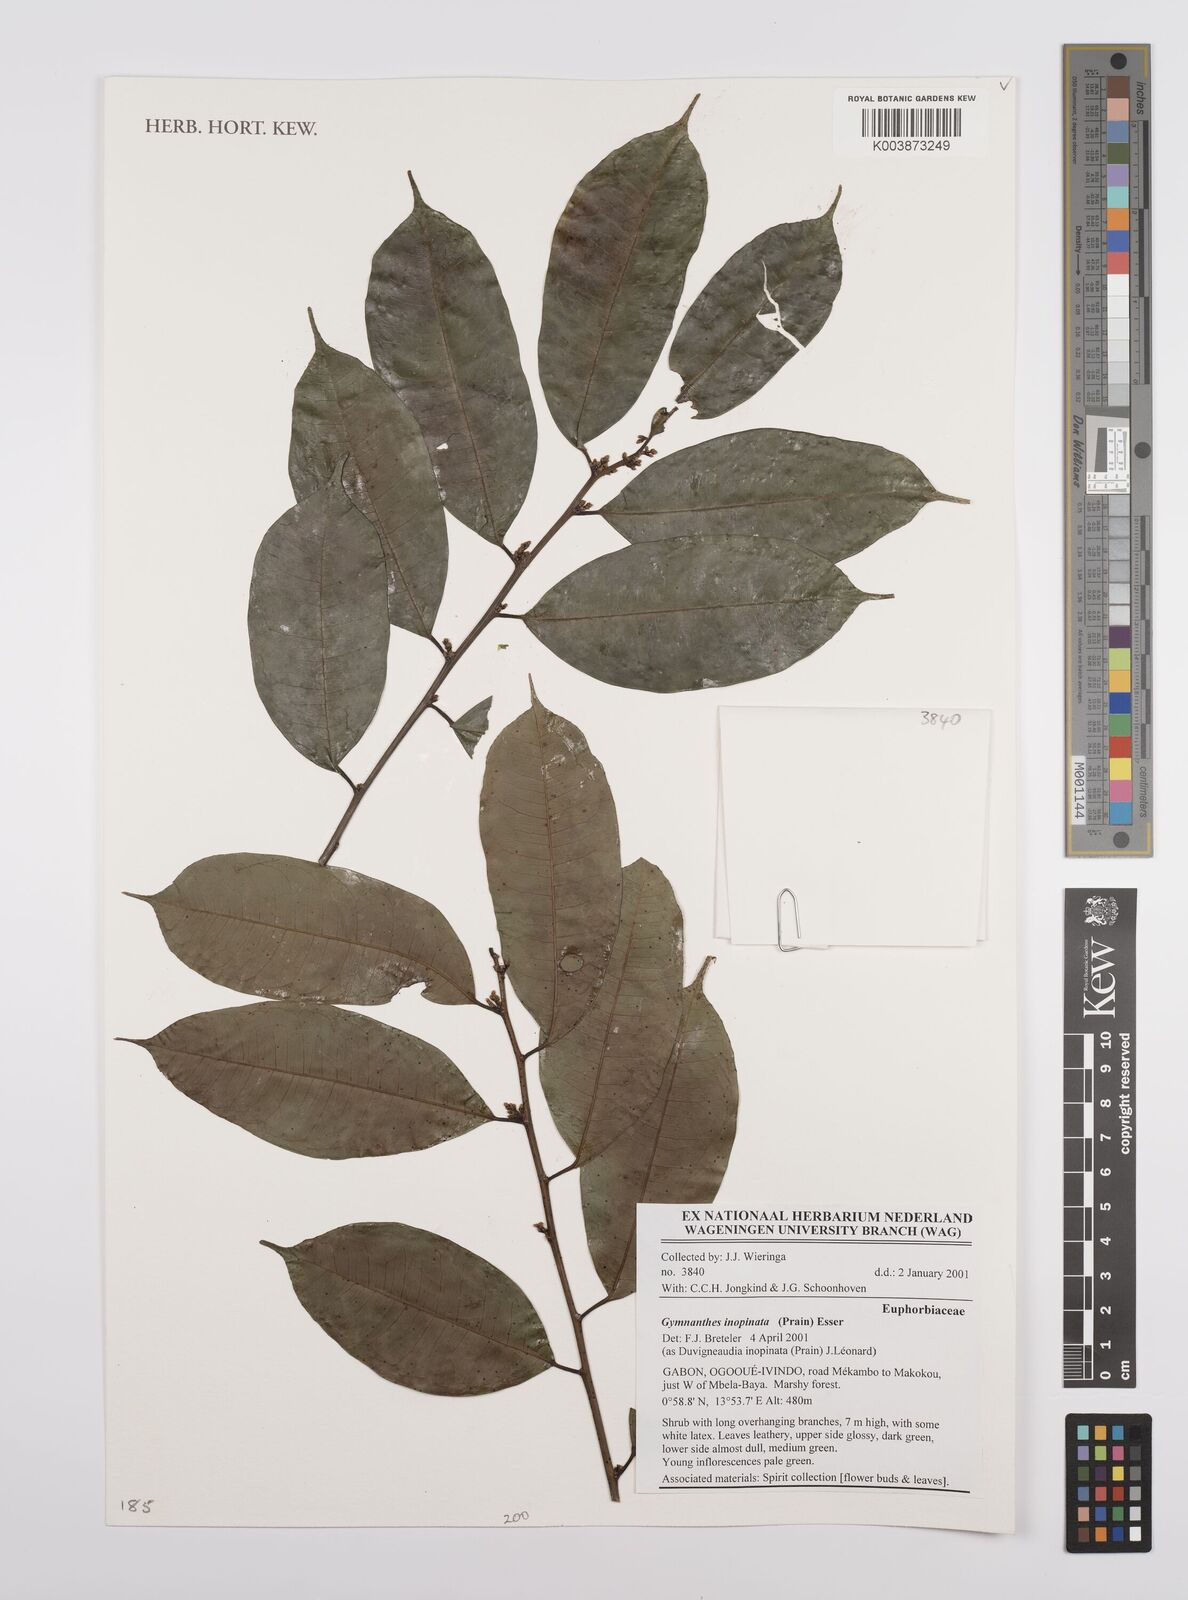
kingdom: Plantae
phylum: Tracheophyta
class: Magnoliopsida
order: Malpighiales
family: Euphorbiaceae
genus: Gymnanthes
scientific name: Gymnanthes inopinata
